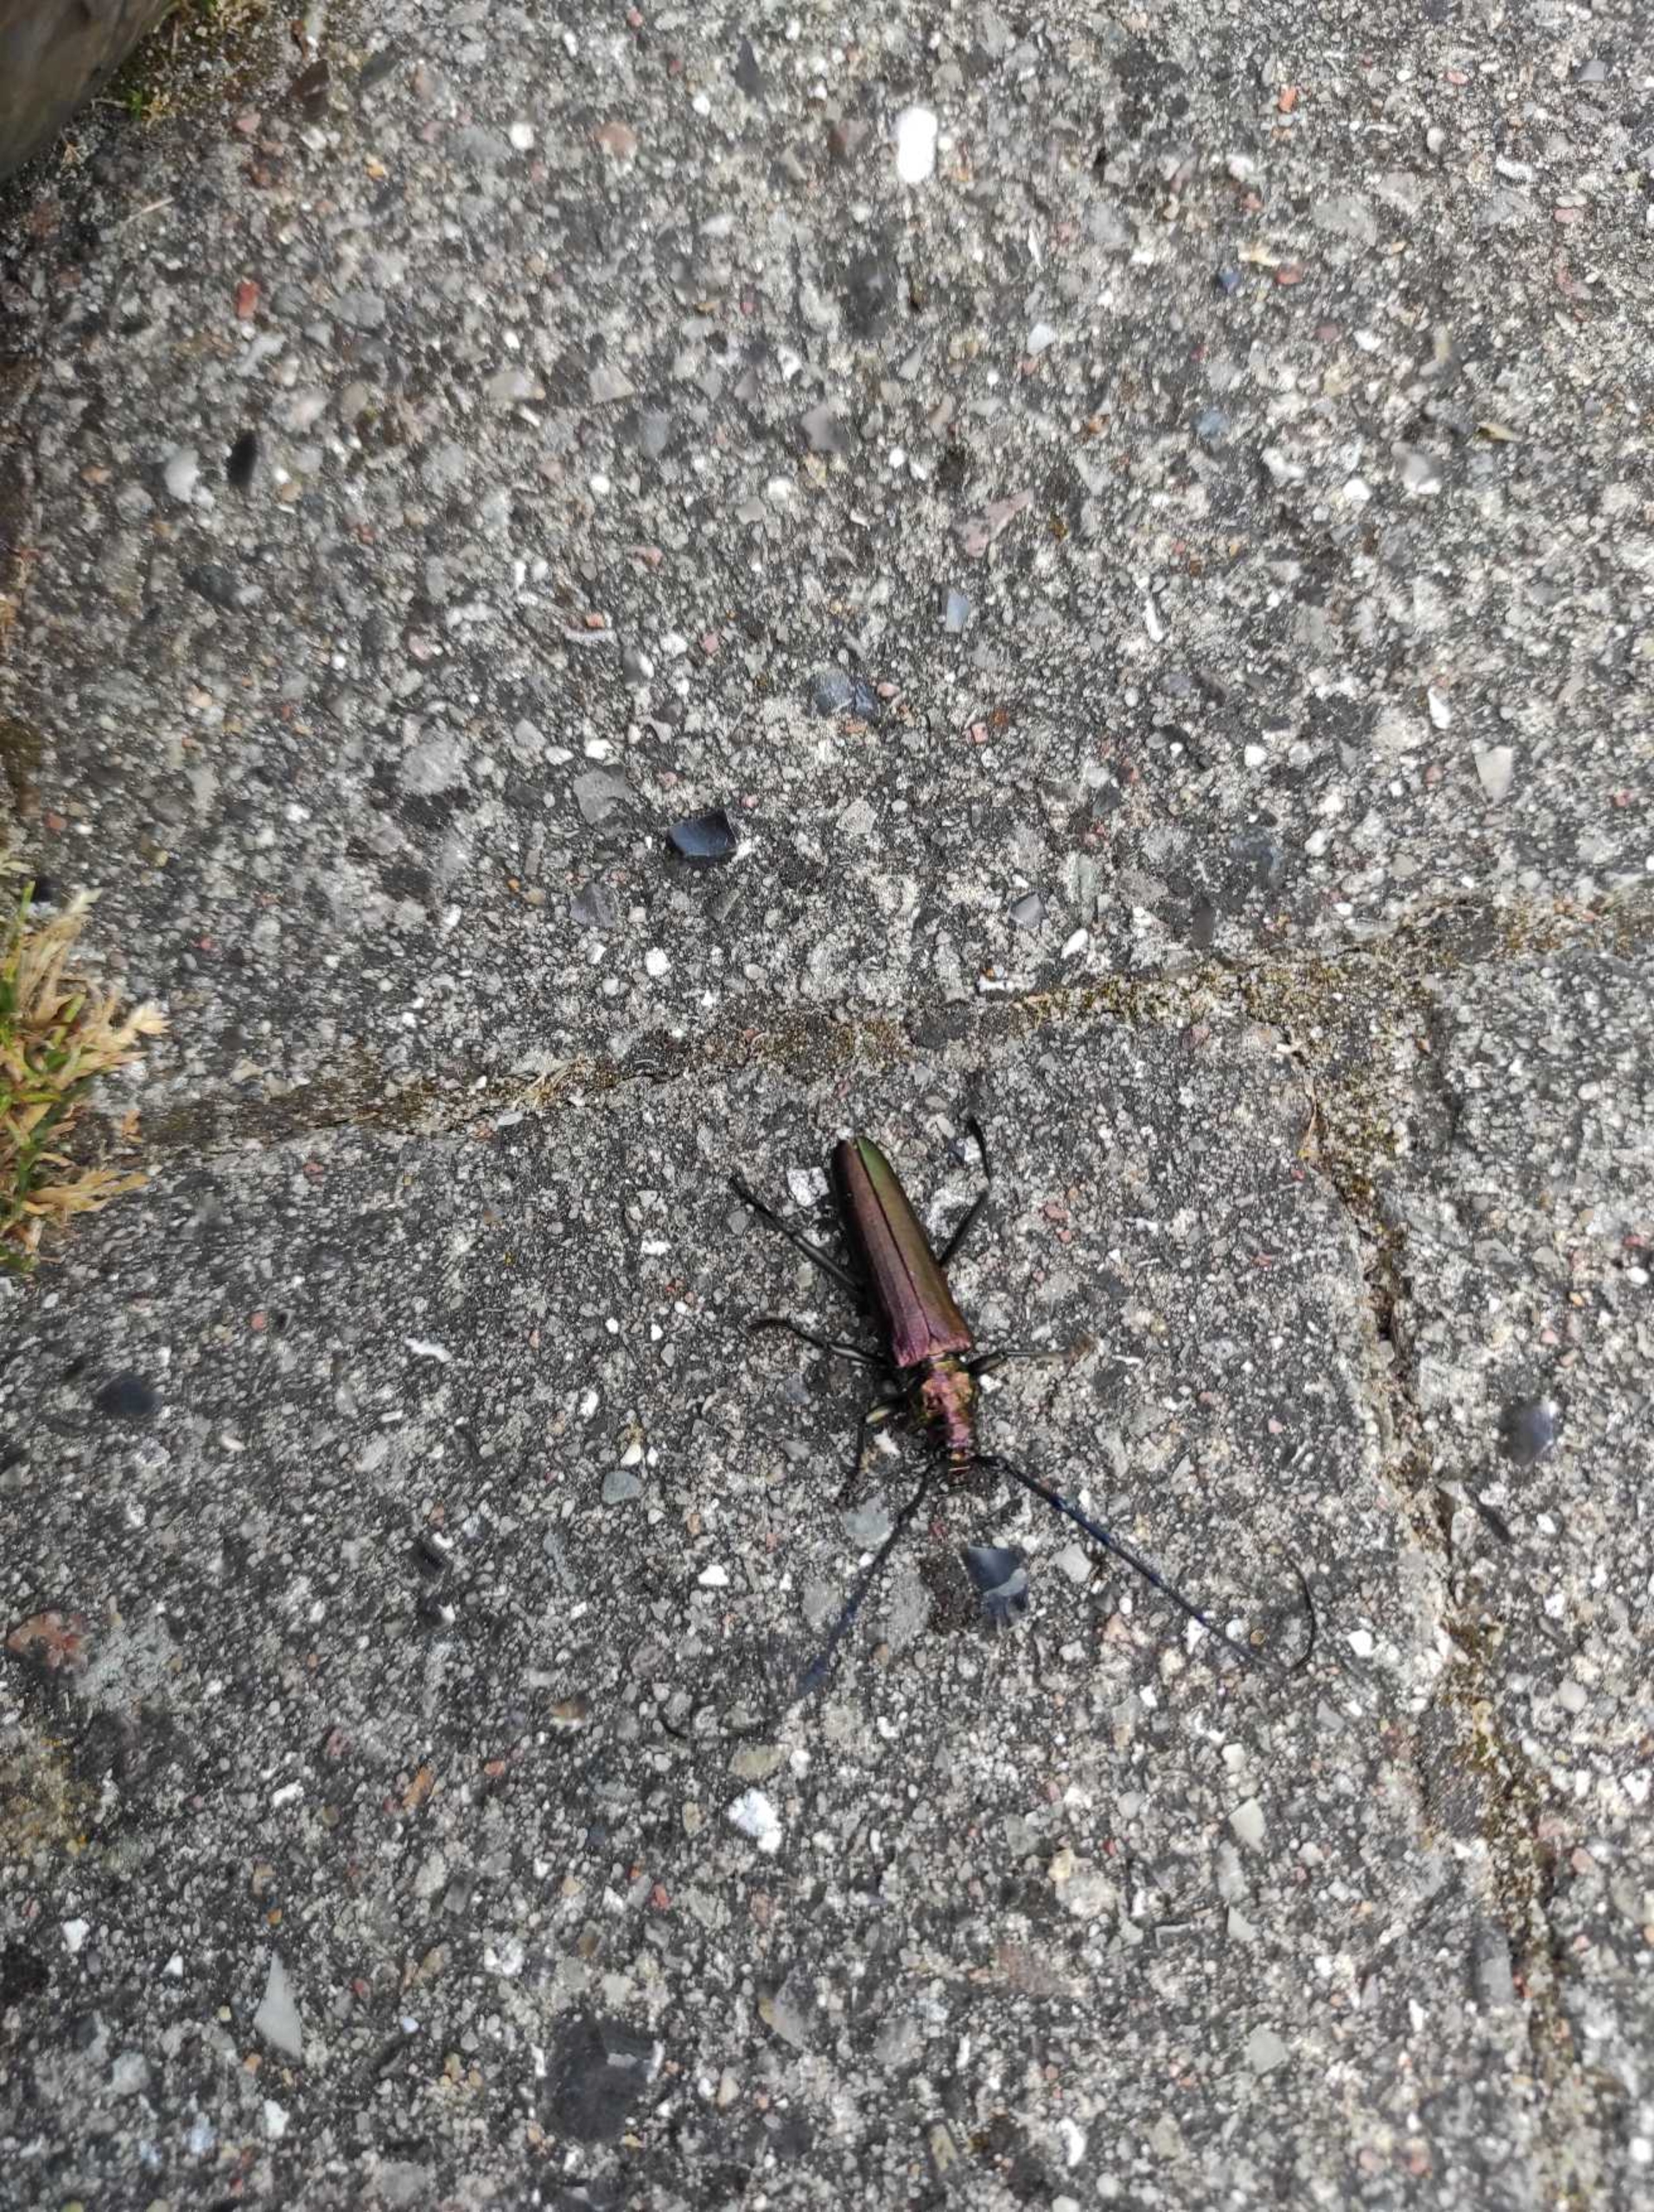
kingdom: Animalia
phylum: Arthropoda
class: Insecta
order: Coleoptera
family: Cerambycidae
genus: Aromia
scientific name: Aromia moschata
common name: Moskusbuk
